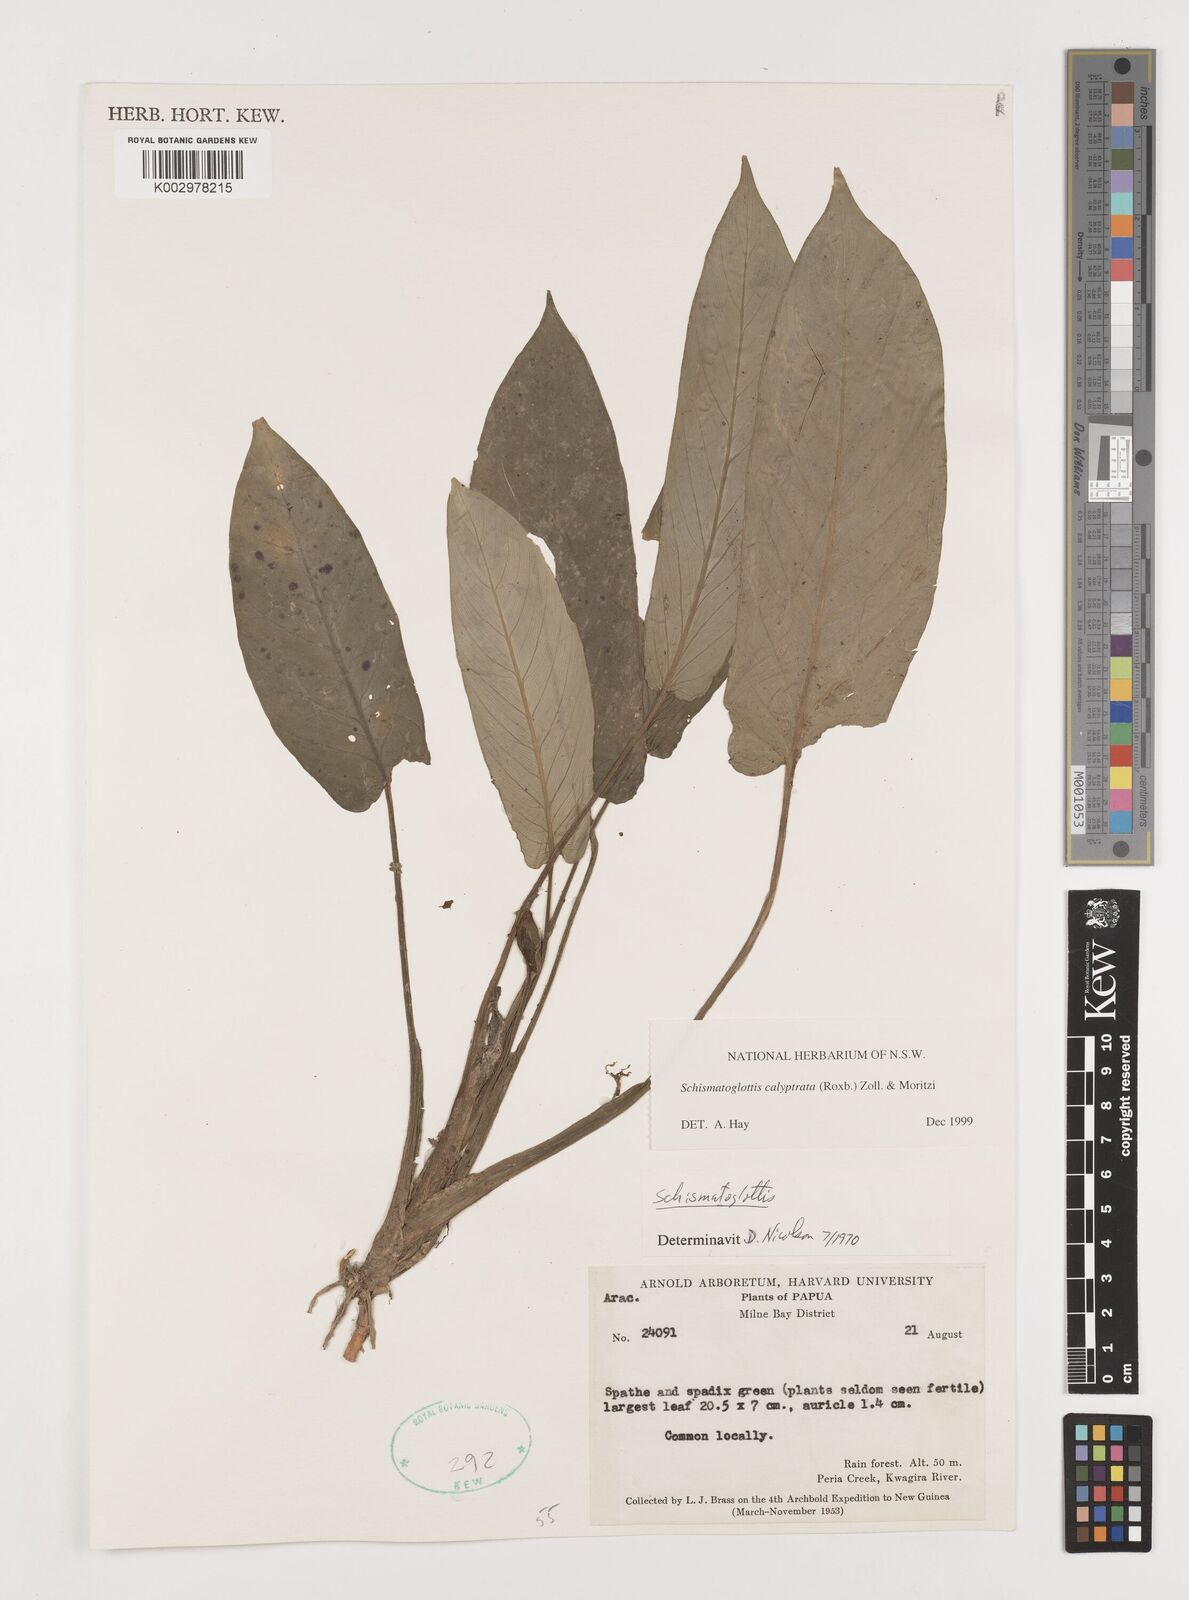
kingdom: Plantae
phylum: Tracheophyta
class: Liliopsida
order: Alismatales
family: Araceae
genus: Schismatoglottis
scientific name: Schismatoglottis calyptrata
